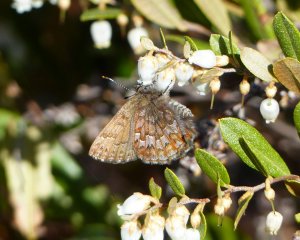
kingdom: Animalia
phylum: Arthropoda
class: Insecta
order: Lepidoptera
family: Lycaenidae
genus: Incisalia
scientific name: Incisalia niphon
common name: Eastern Pine Elfin
